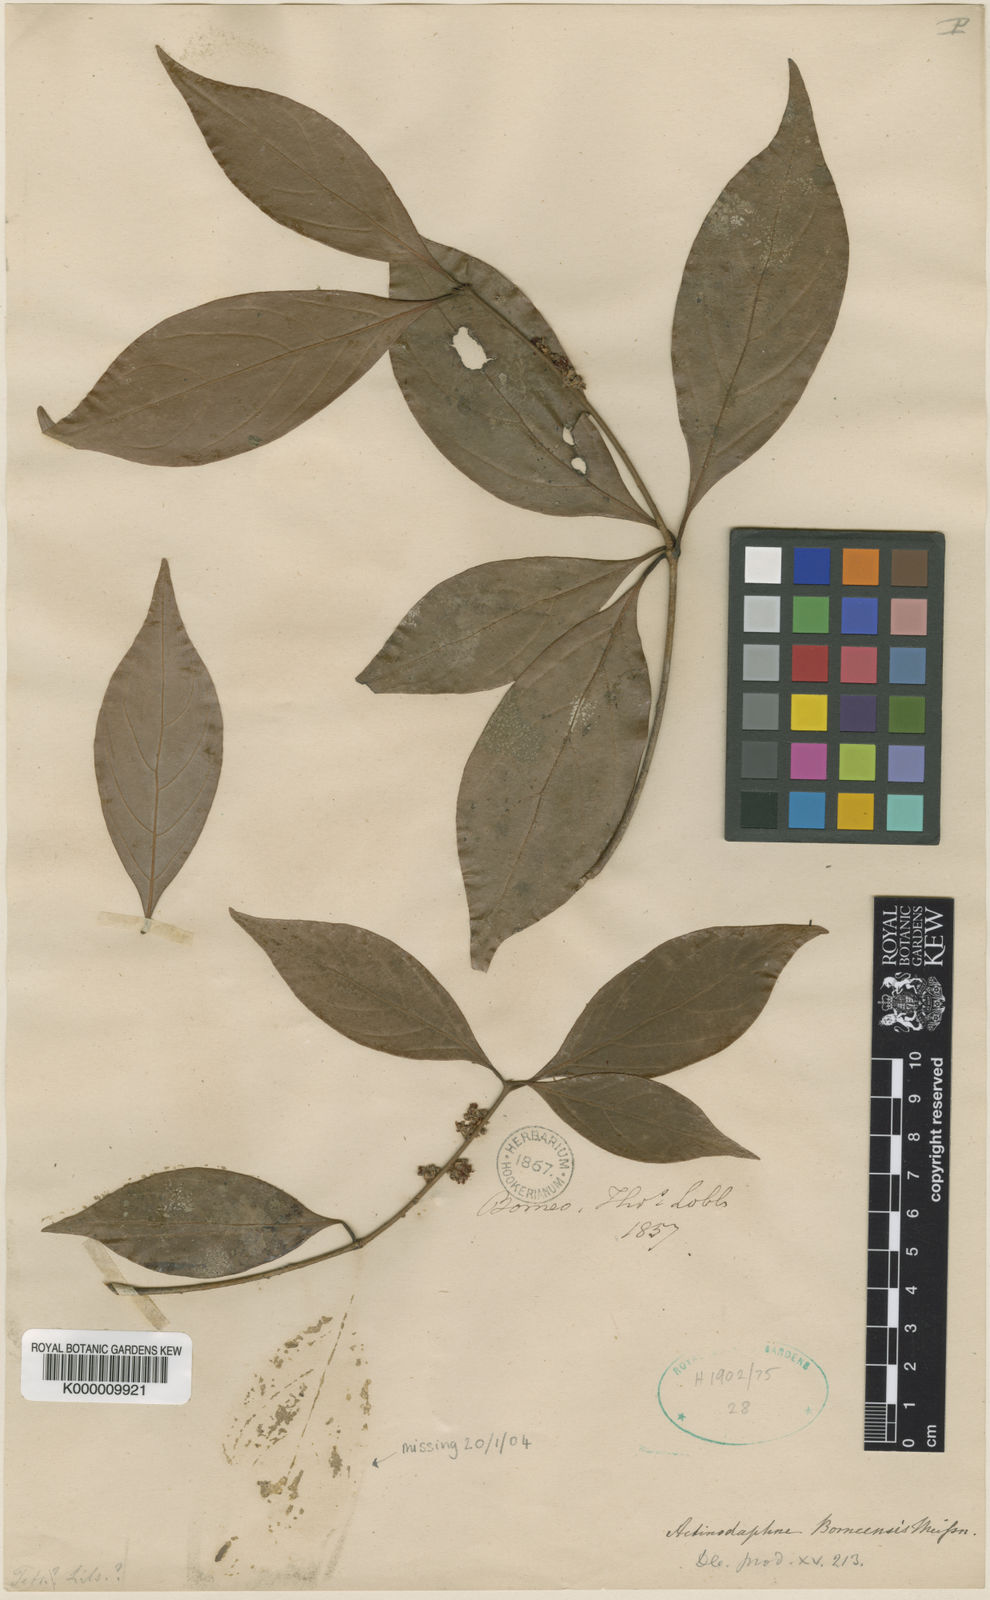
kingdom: Plantae
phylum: Tracheophyta
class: Magnoliopsida
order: Laurales
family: Lauraceae
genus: Actinodaphne
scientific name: Actinodaphne borneensis
